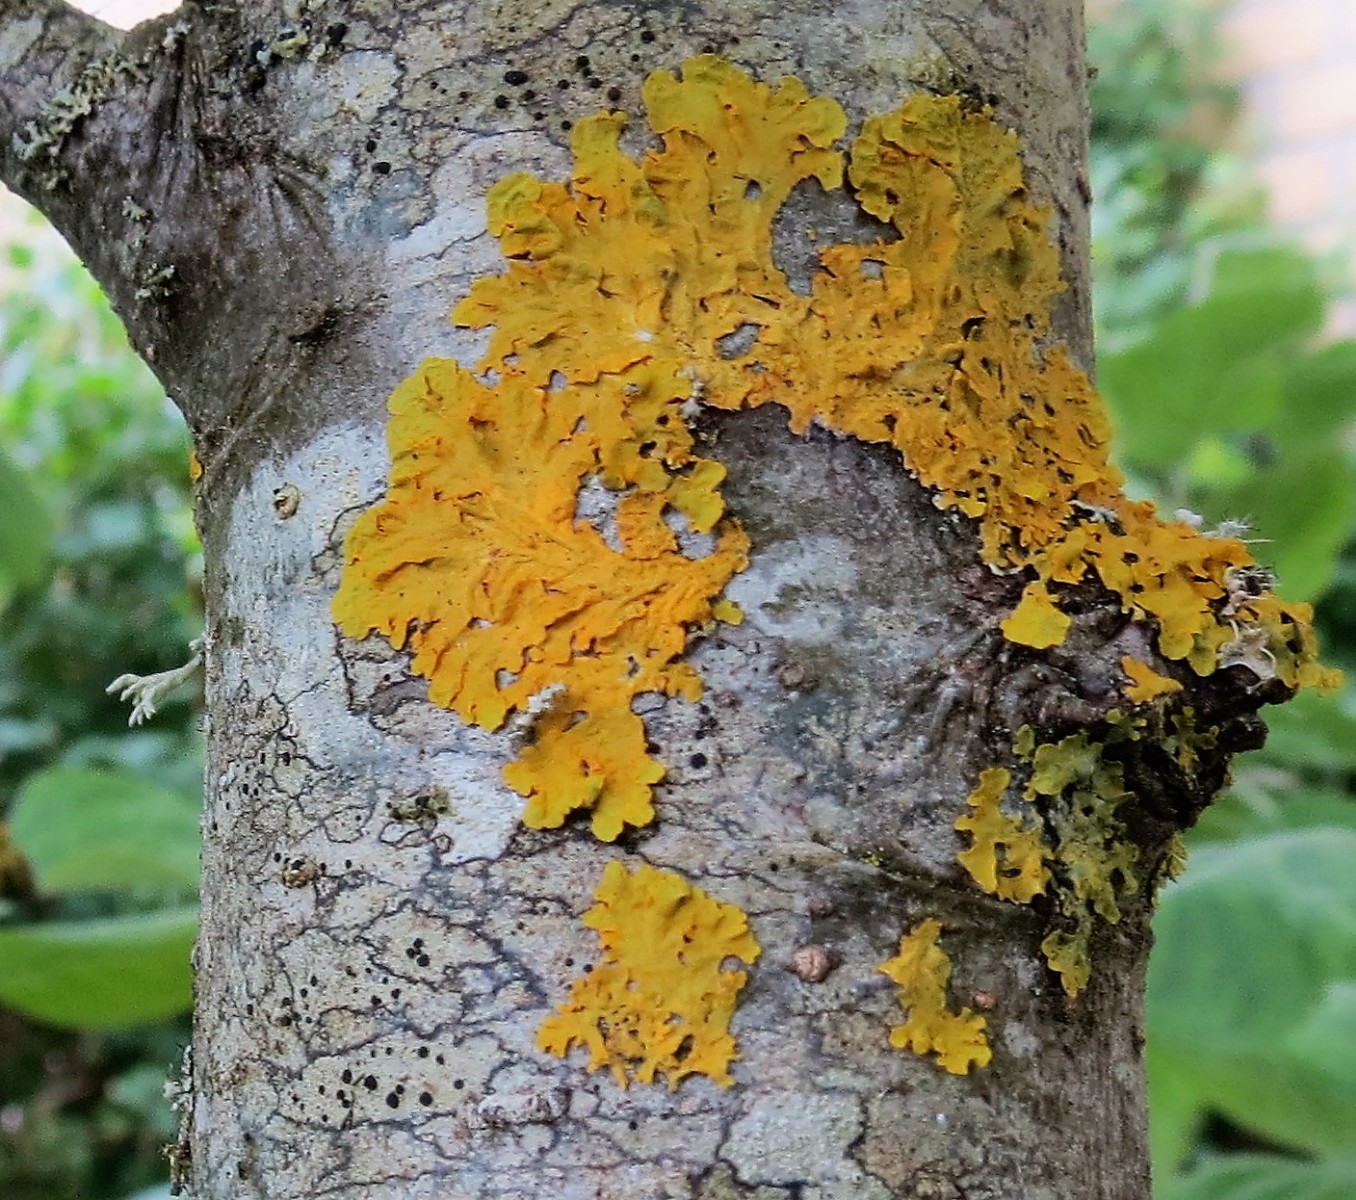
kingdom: Fungi
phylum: Ascomycota
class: Lecanoromycetes
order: Teloschistales
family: Teloschistaceae
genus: Xanthoria
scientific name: Xanthoria parietina
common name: almindelig væggelav
